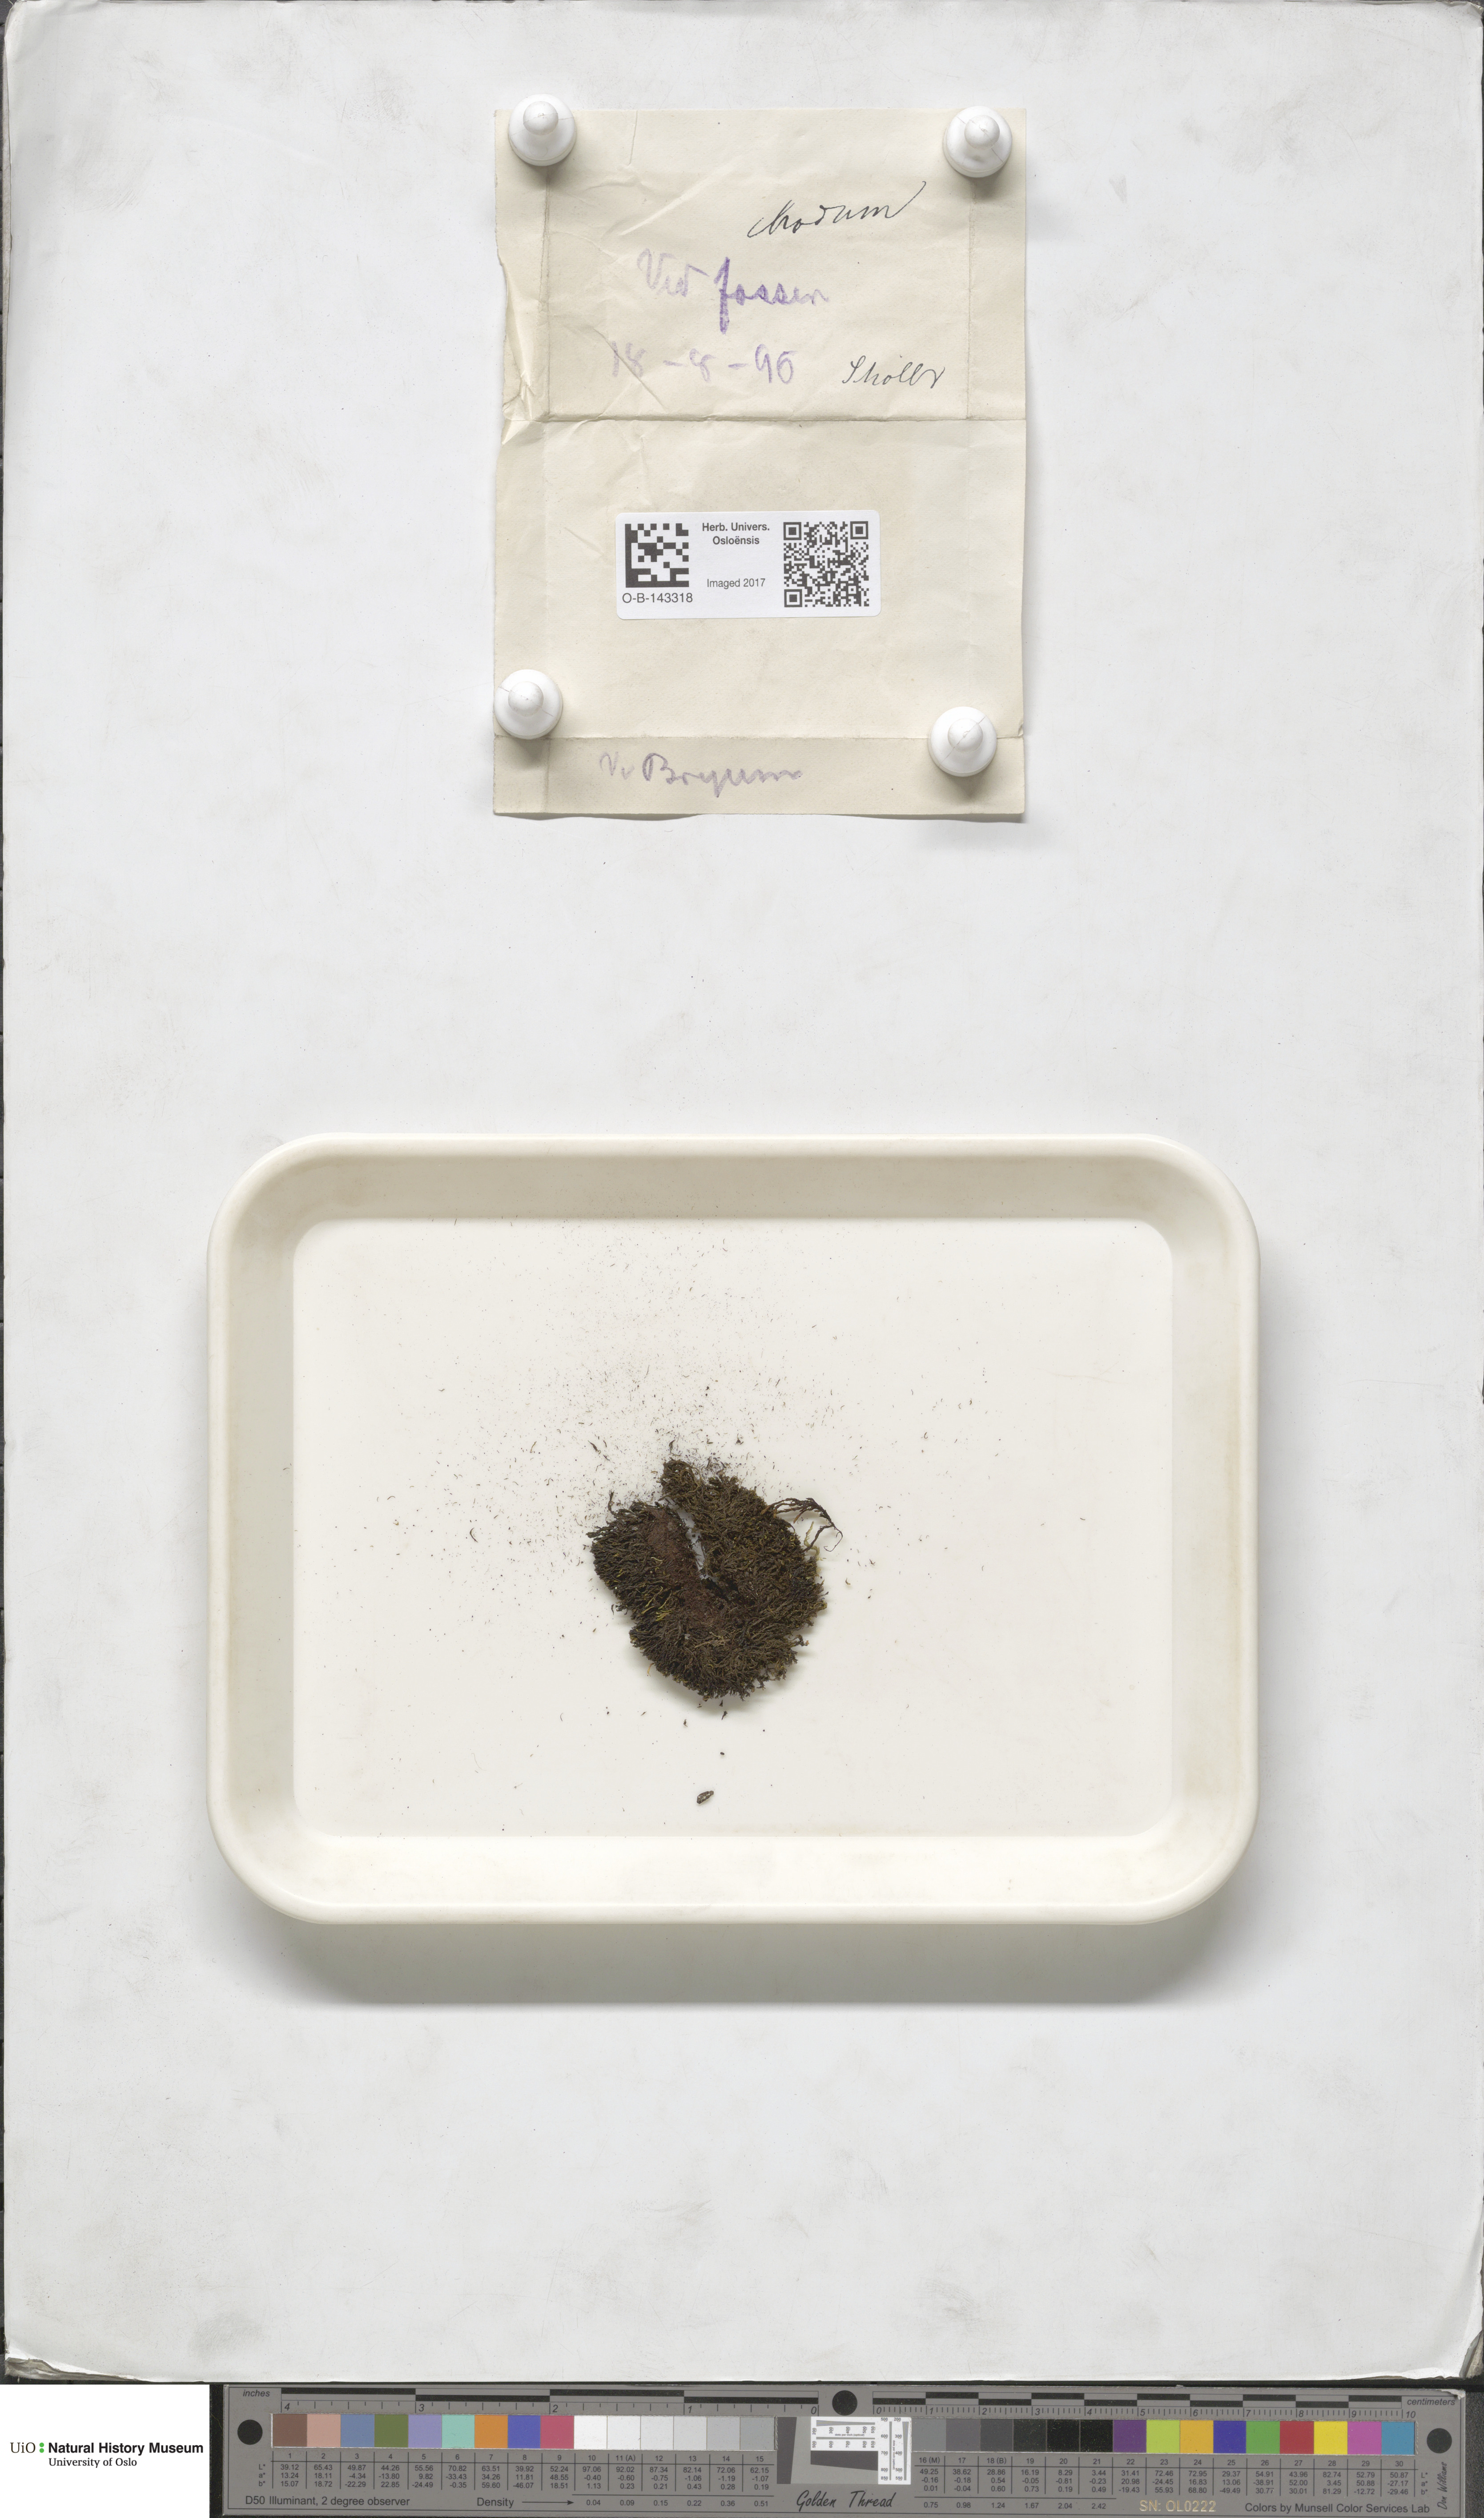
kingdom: Plantae
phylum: Bryophyta
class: Bryopsida
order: Bryales
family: Bryaceae
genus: Bryum
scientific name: Bryum
